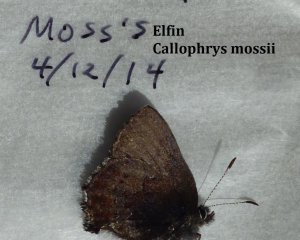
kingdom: Animalia
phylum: Arthropoda
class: Insecta
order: Lepidoptera
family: Lycaenidae
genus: Callophrys
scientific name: Callophrys mossii
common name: Moss' Elfin
